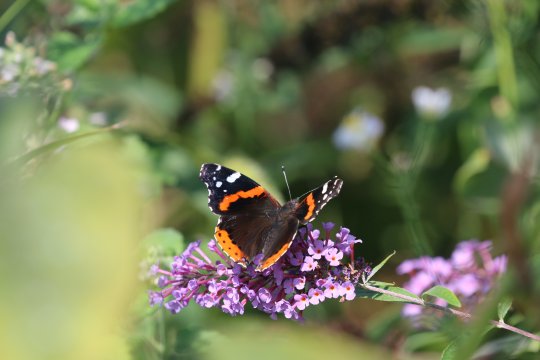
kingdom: Animalia
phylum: Arthropoda
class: Insecta
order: Lepidoptera
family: Nymphalidae
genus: Vanessa
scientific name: Vanessa atalanta
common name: Red Admiral
